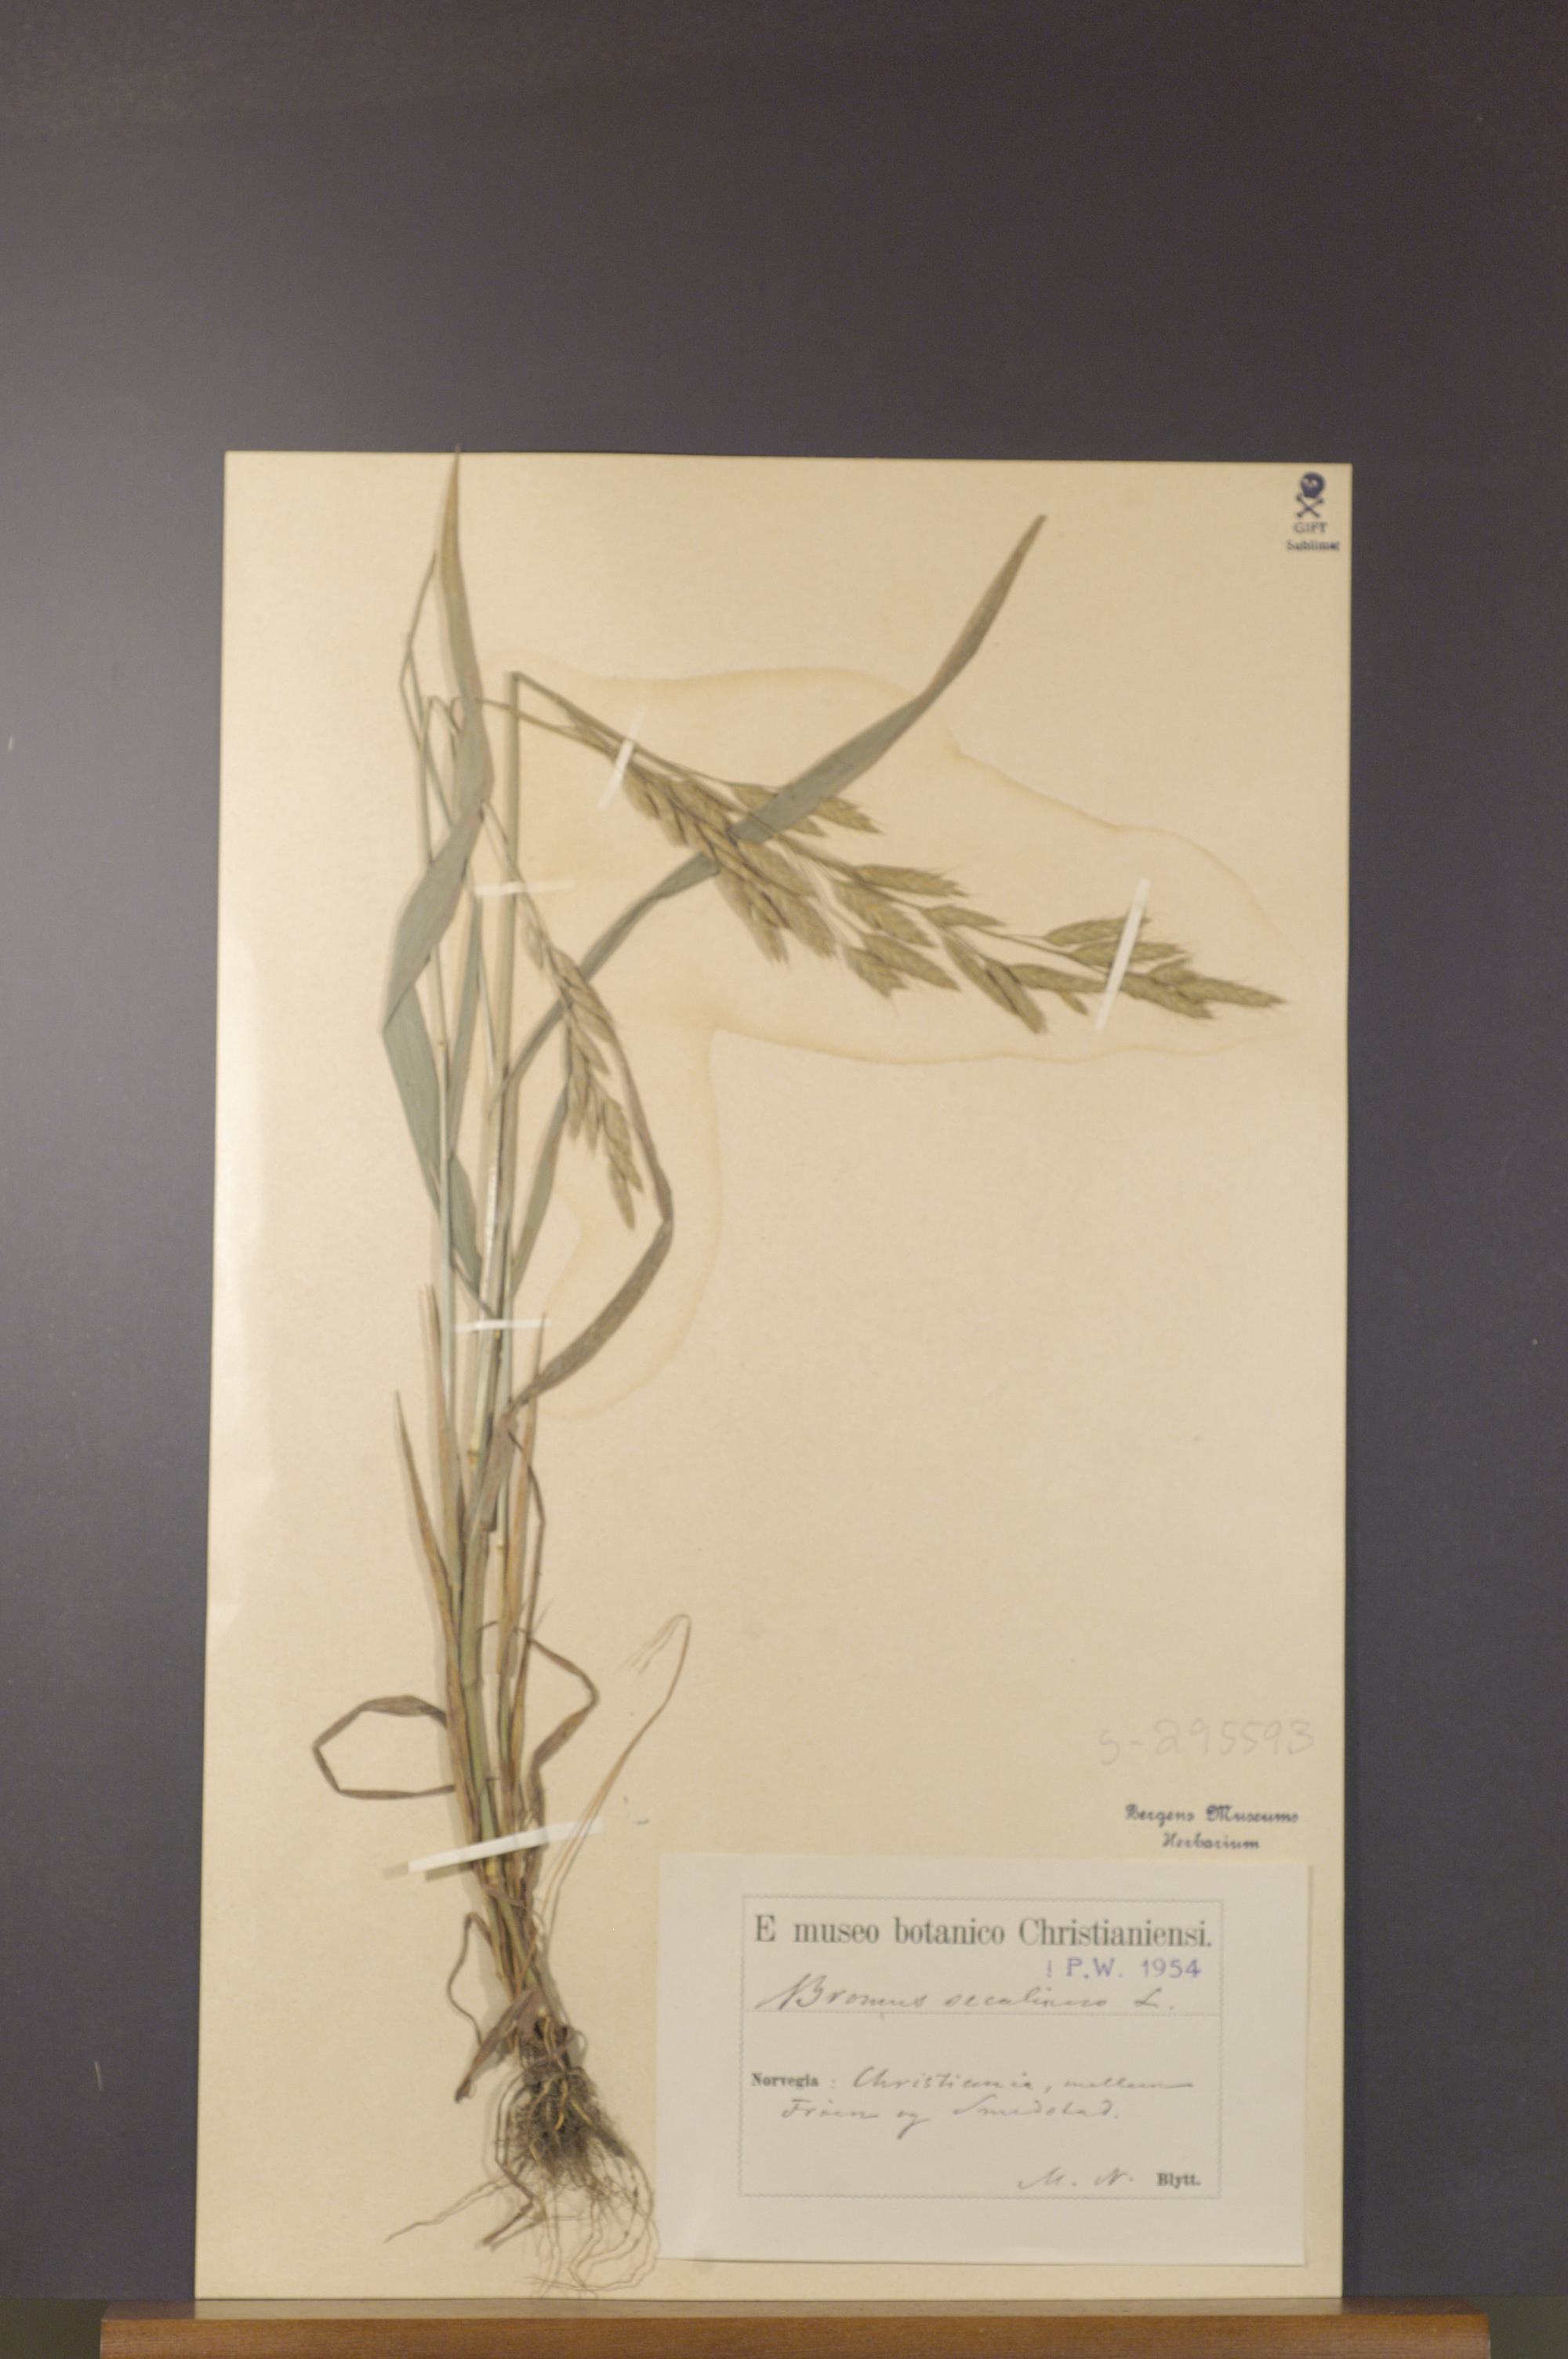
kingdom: Plantae
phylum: Tracheophyta
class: Liliopsida
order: Poales
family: Poaceae
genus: Bromus
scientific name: Bromus secalinus
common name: Rye brome
